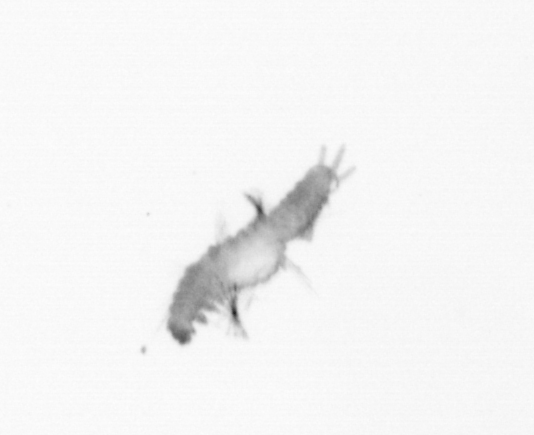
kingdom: Animalia
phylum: Annelida
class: Polychaeta
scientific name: Polychaeta
